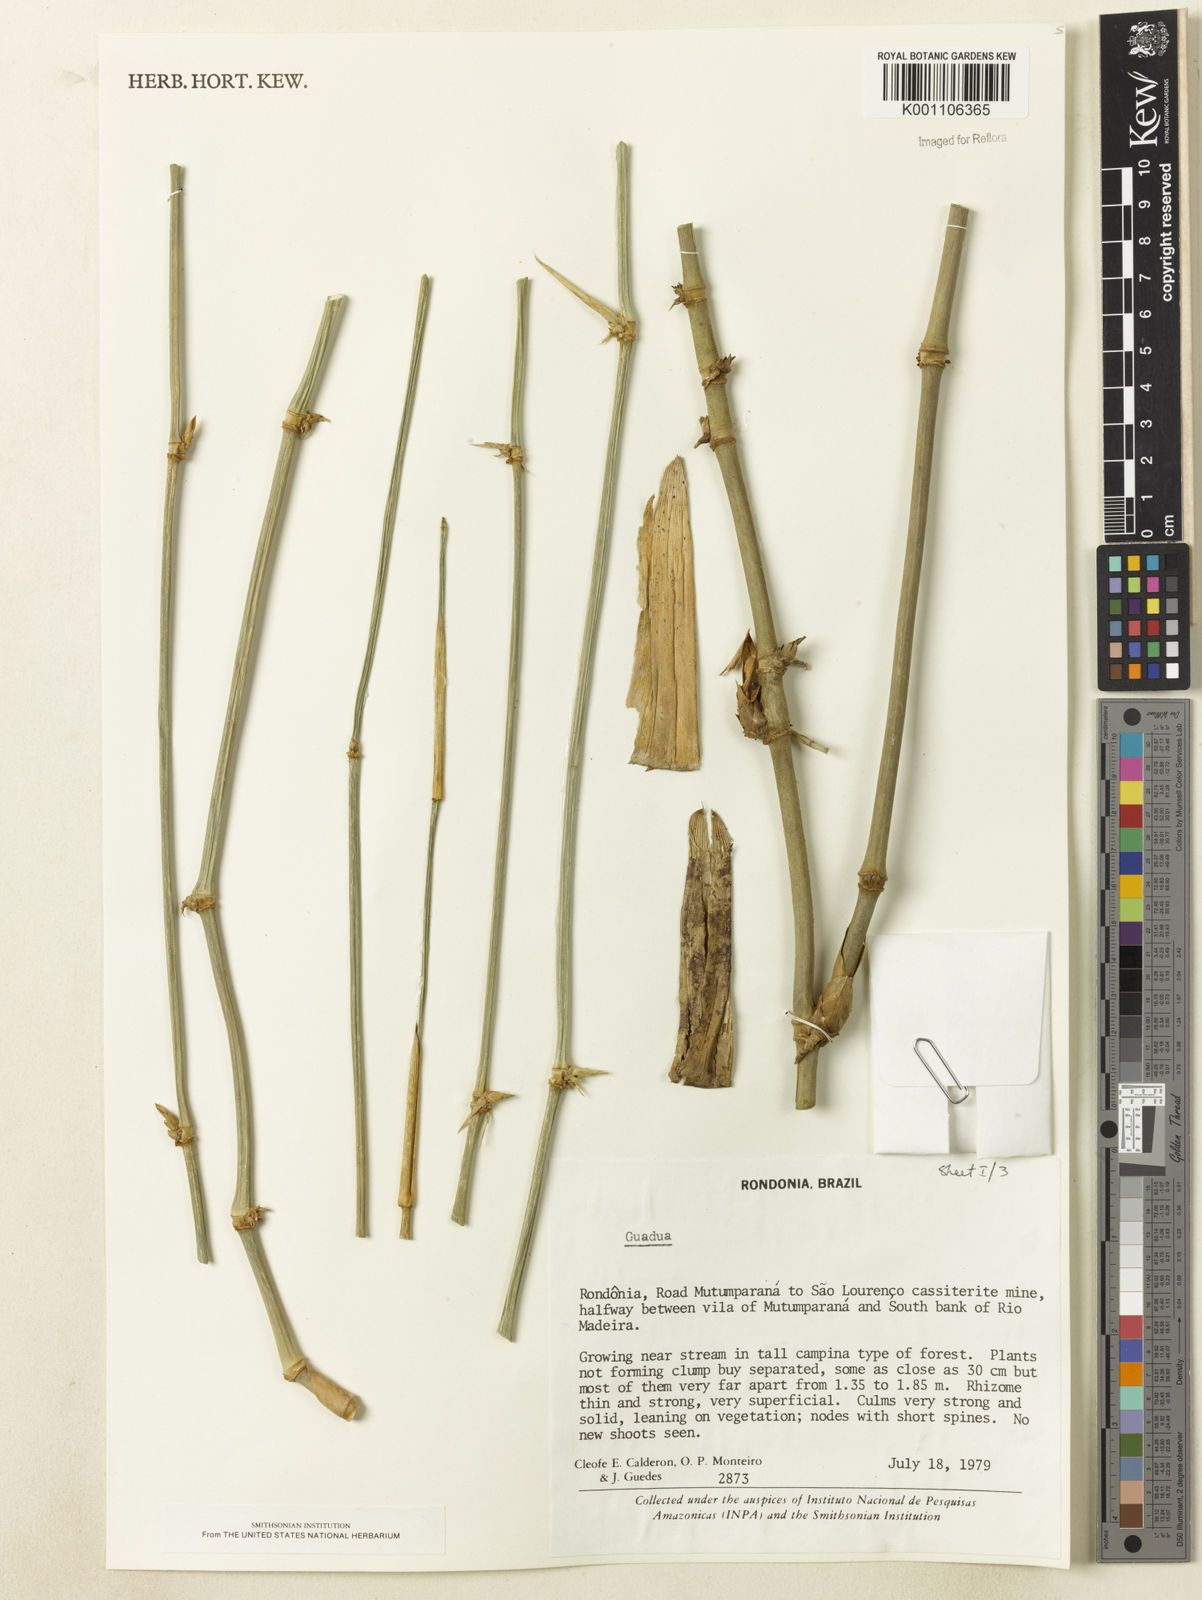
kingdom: Plantae
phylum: Tracheophyta
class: Liliopsida
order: Poales
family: Poaceae
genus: Guadua
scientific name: Guadua
